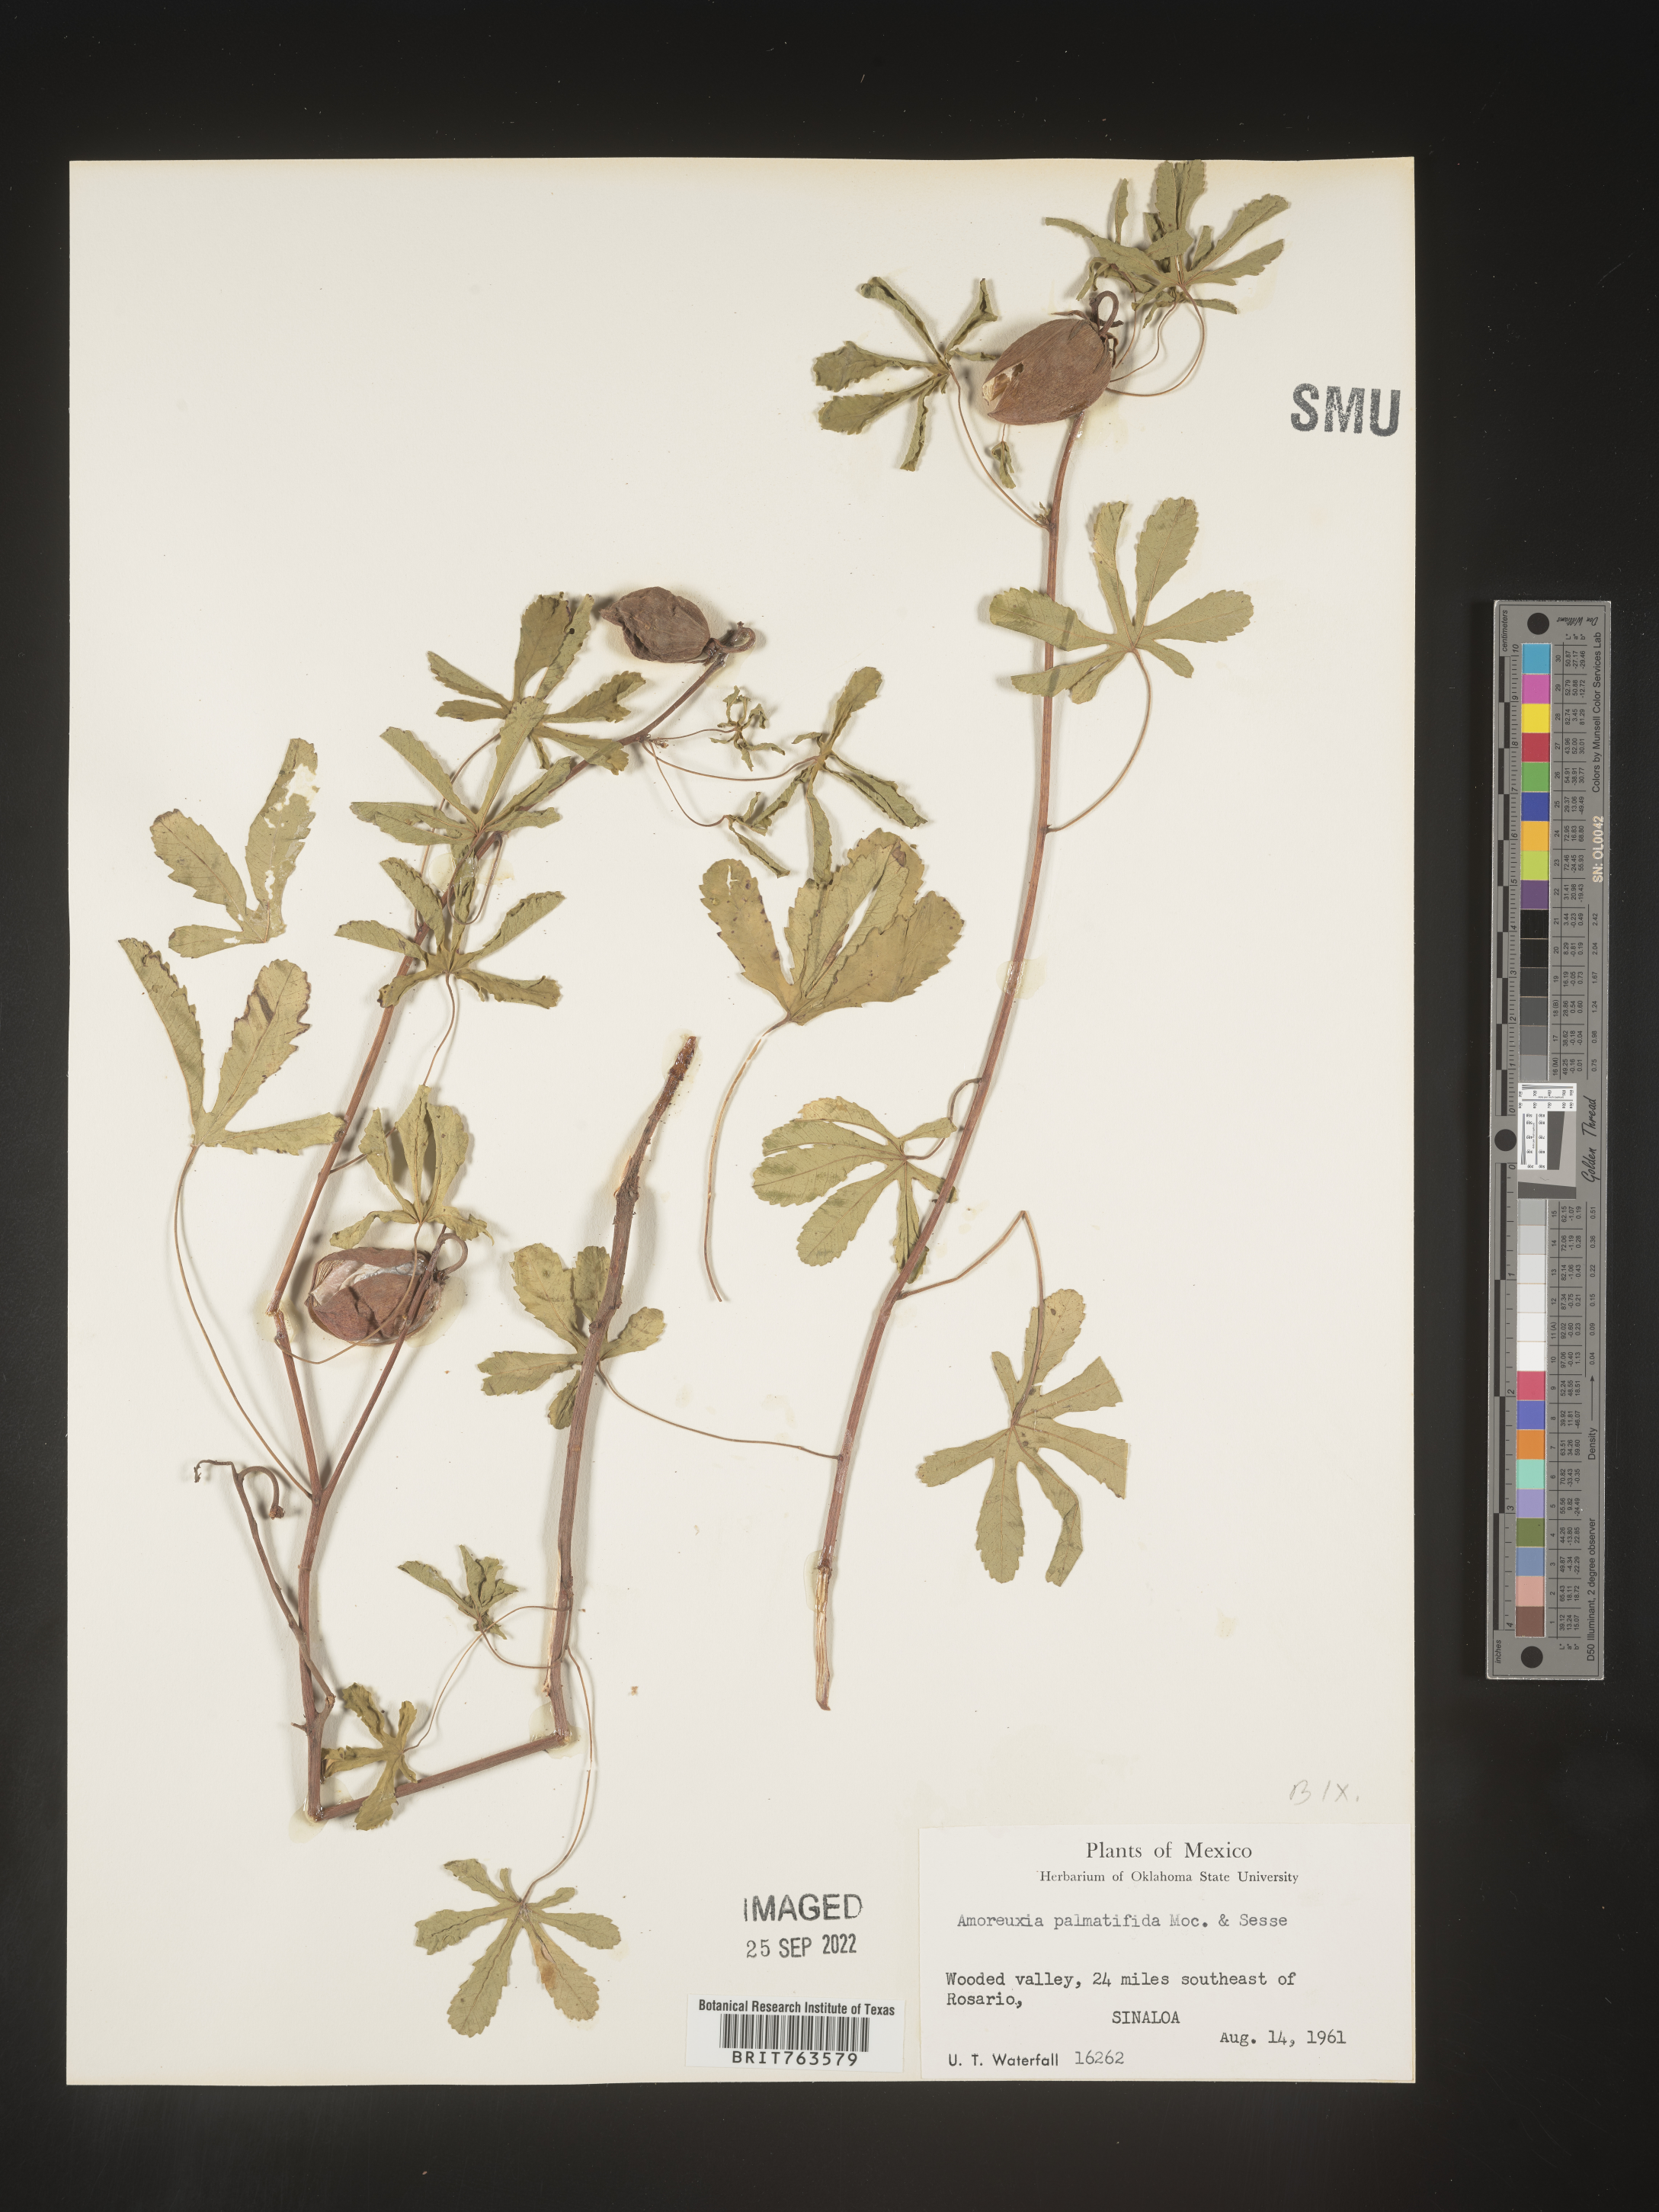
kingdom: Plantae
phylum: Tracheophyta
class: Magnoliopsida
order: Caryophyllales
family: Amaranthaceae
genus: Amoreuxia
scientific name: Amoreuxia
